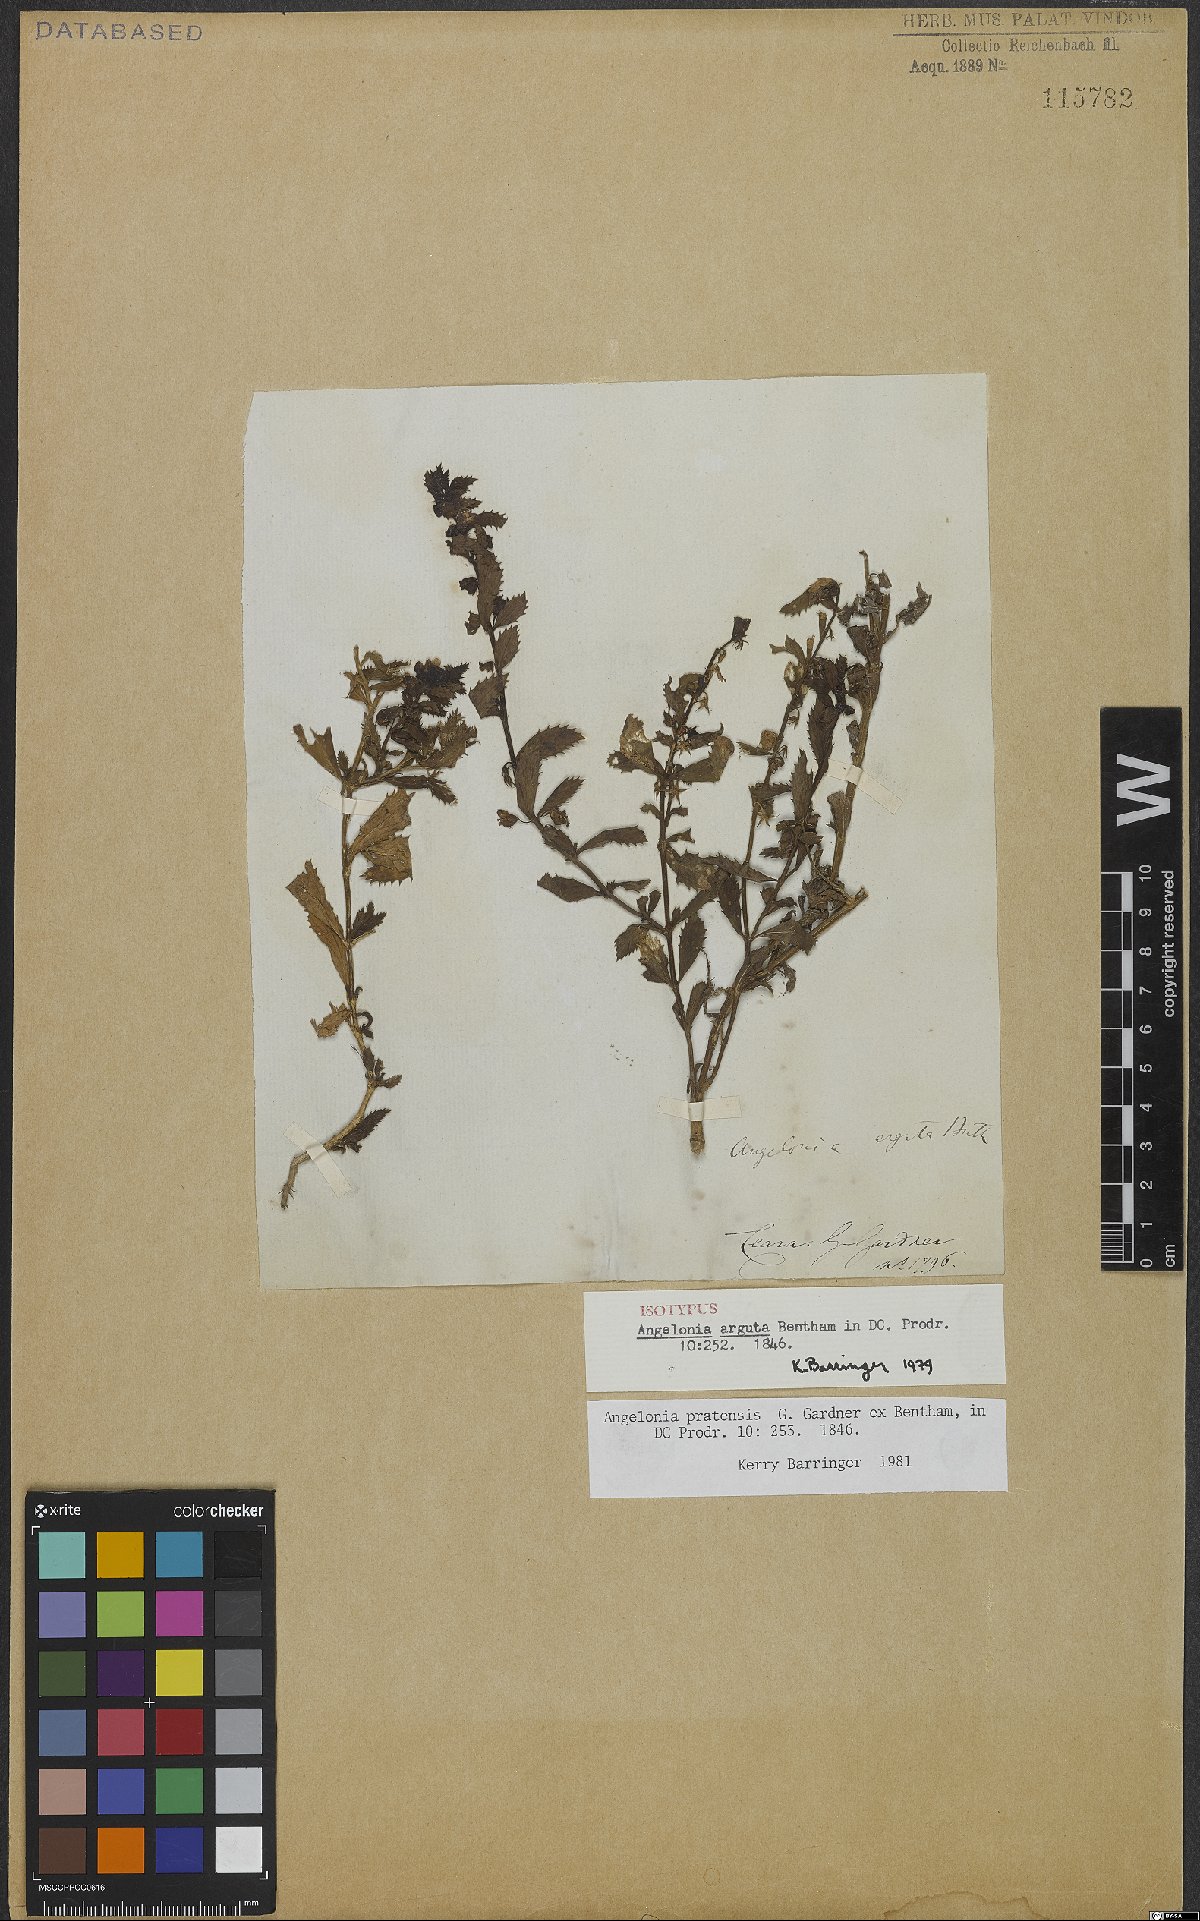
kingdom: Plantae
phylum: Tracheophyta
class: Magnoliopsida
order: Lamiales
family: Plantaginaceae
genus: Angelonia
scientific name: Angelonia arguta
